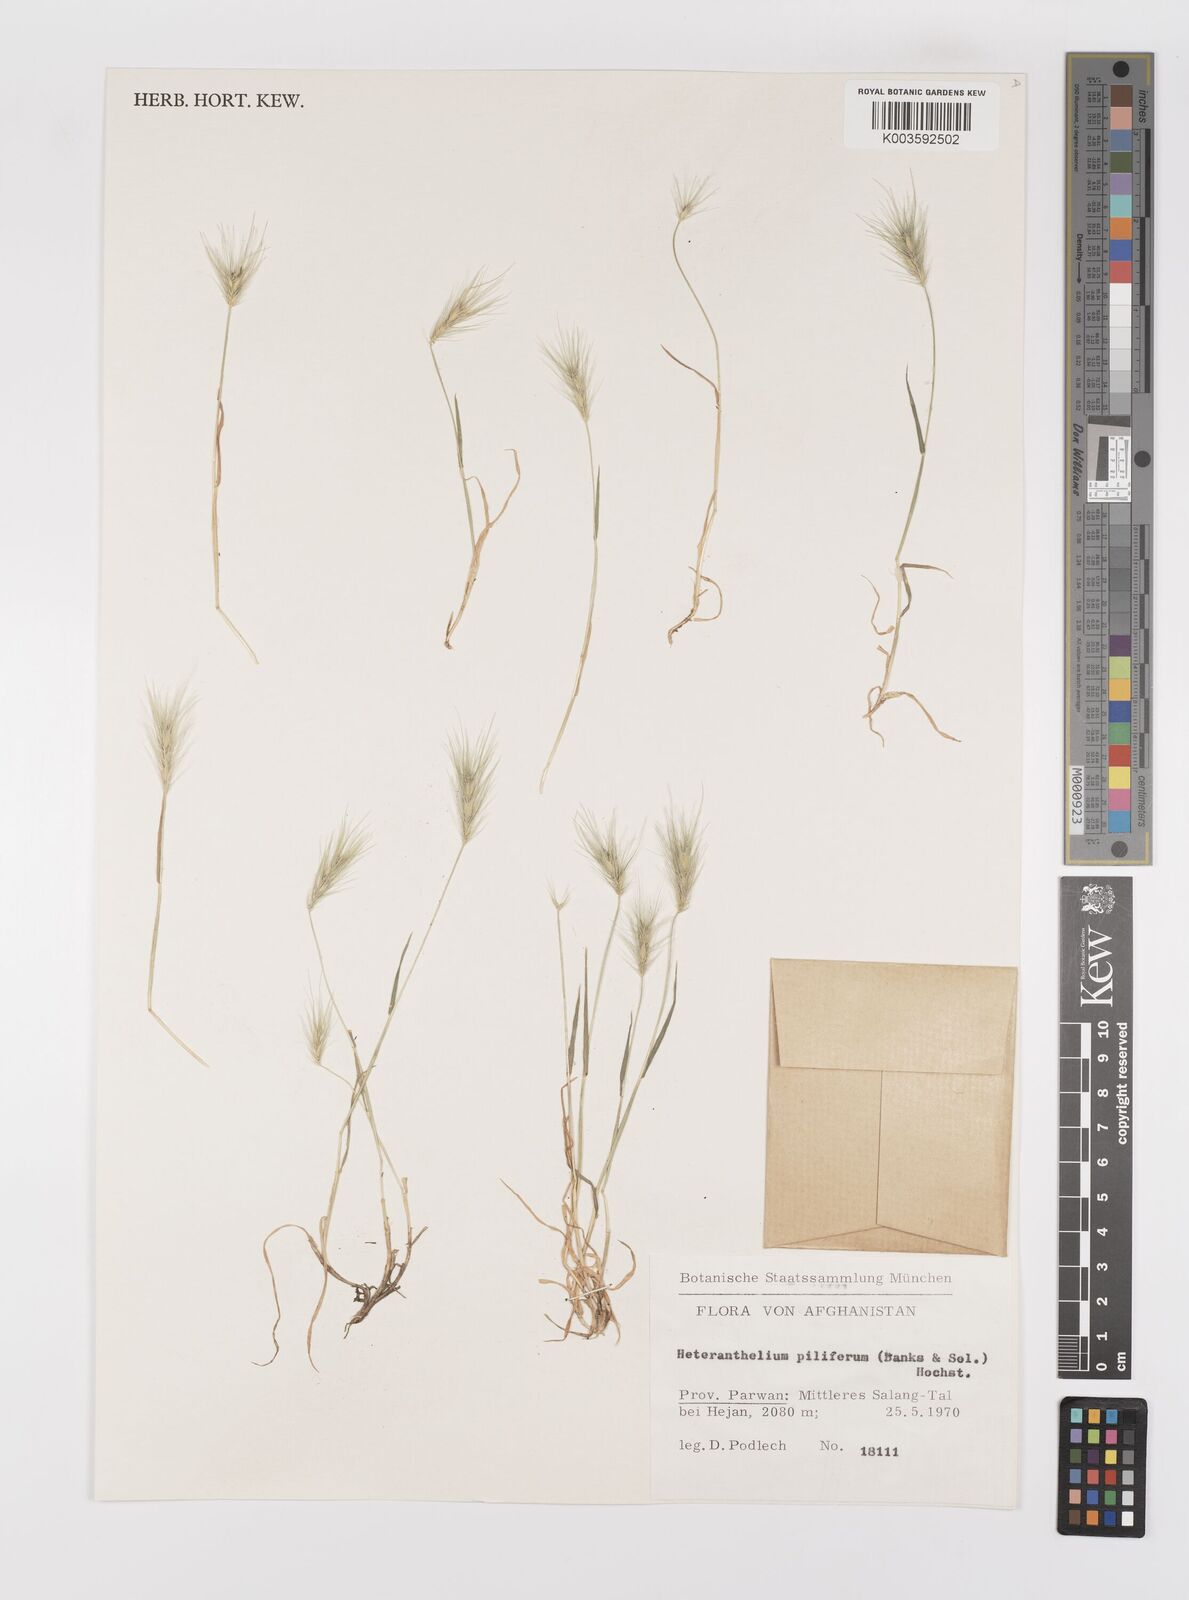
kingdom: Plantae
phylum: Tracheophyta
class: Liliopsida
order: Poales
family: Poaceae
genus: Heteranthelium
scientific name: Heteranthelium piliferum
